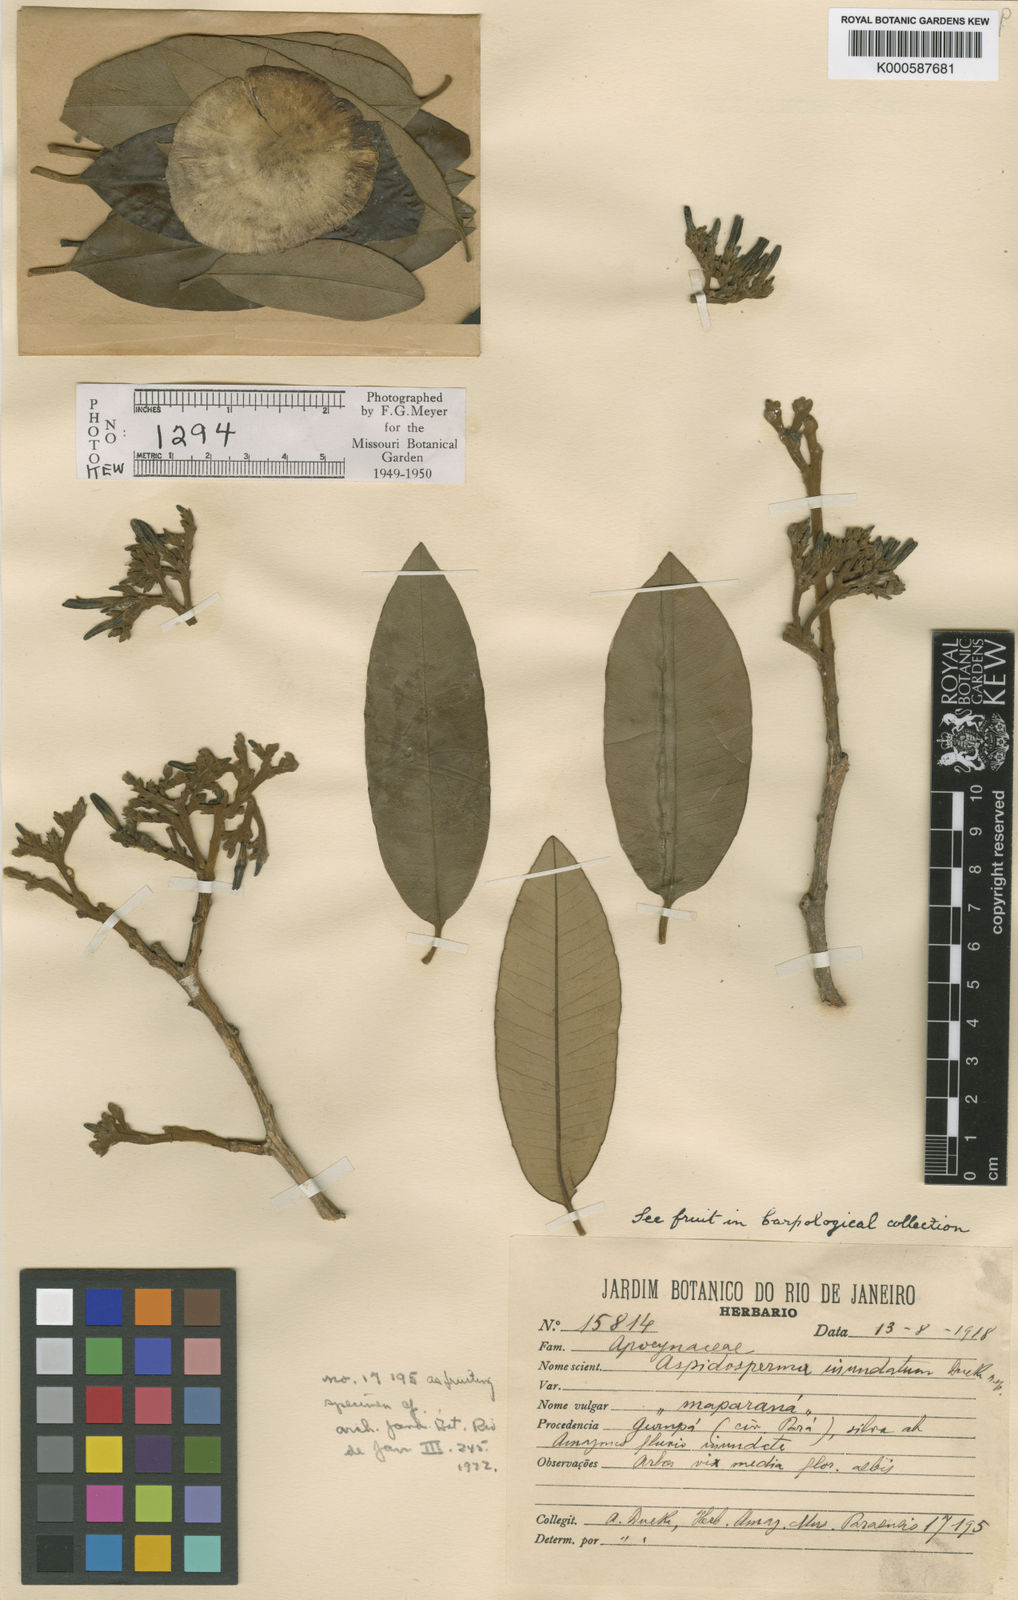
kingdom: Plantae
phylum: Tracheophyta
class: Magnoliopsida
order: Gentianales
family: Apocynaceae
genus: Aspidosperma
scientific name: Aspidosperma inundatum
